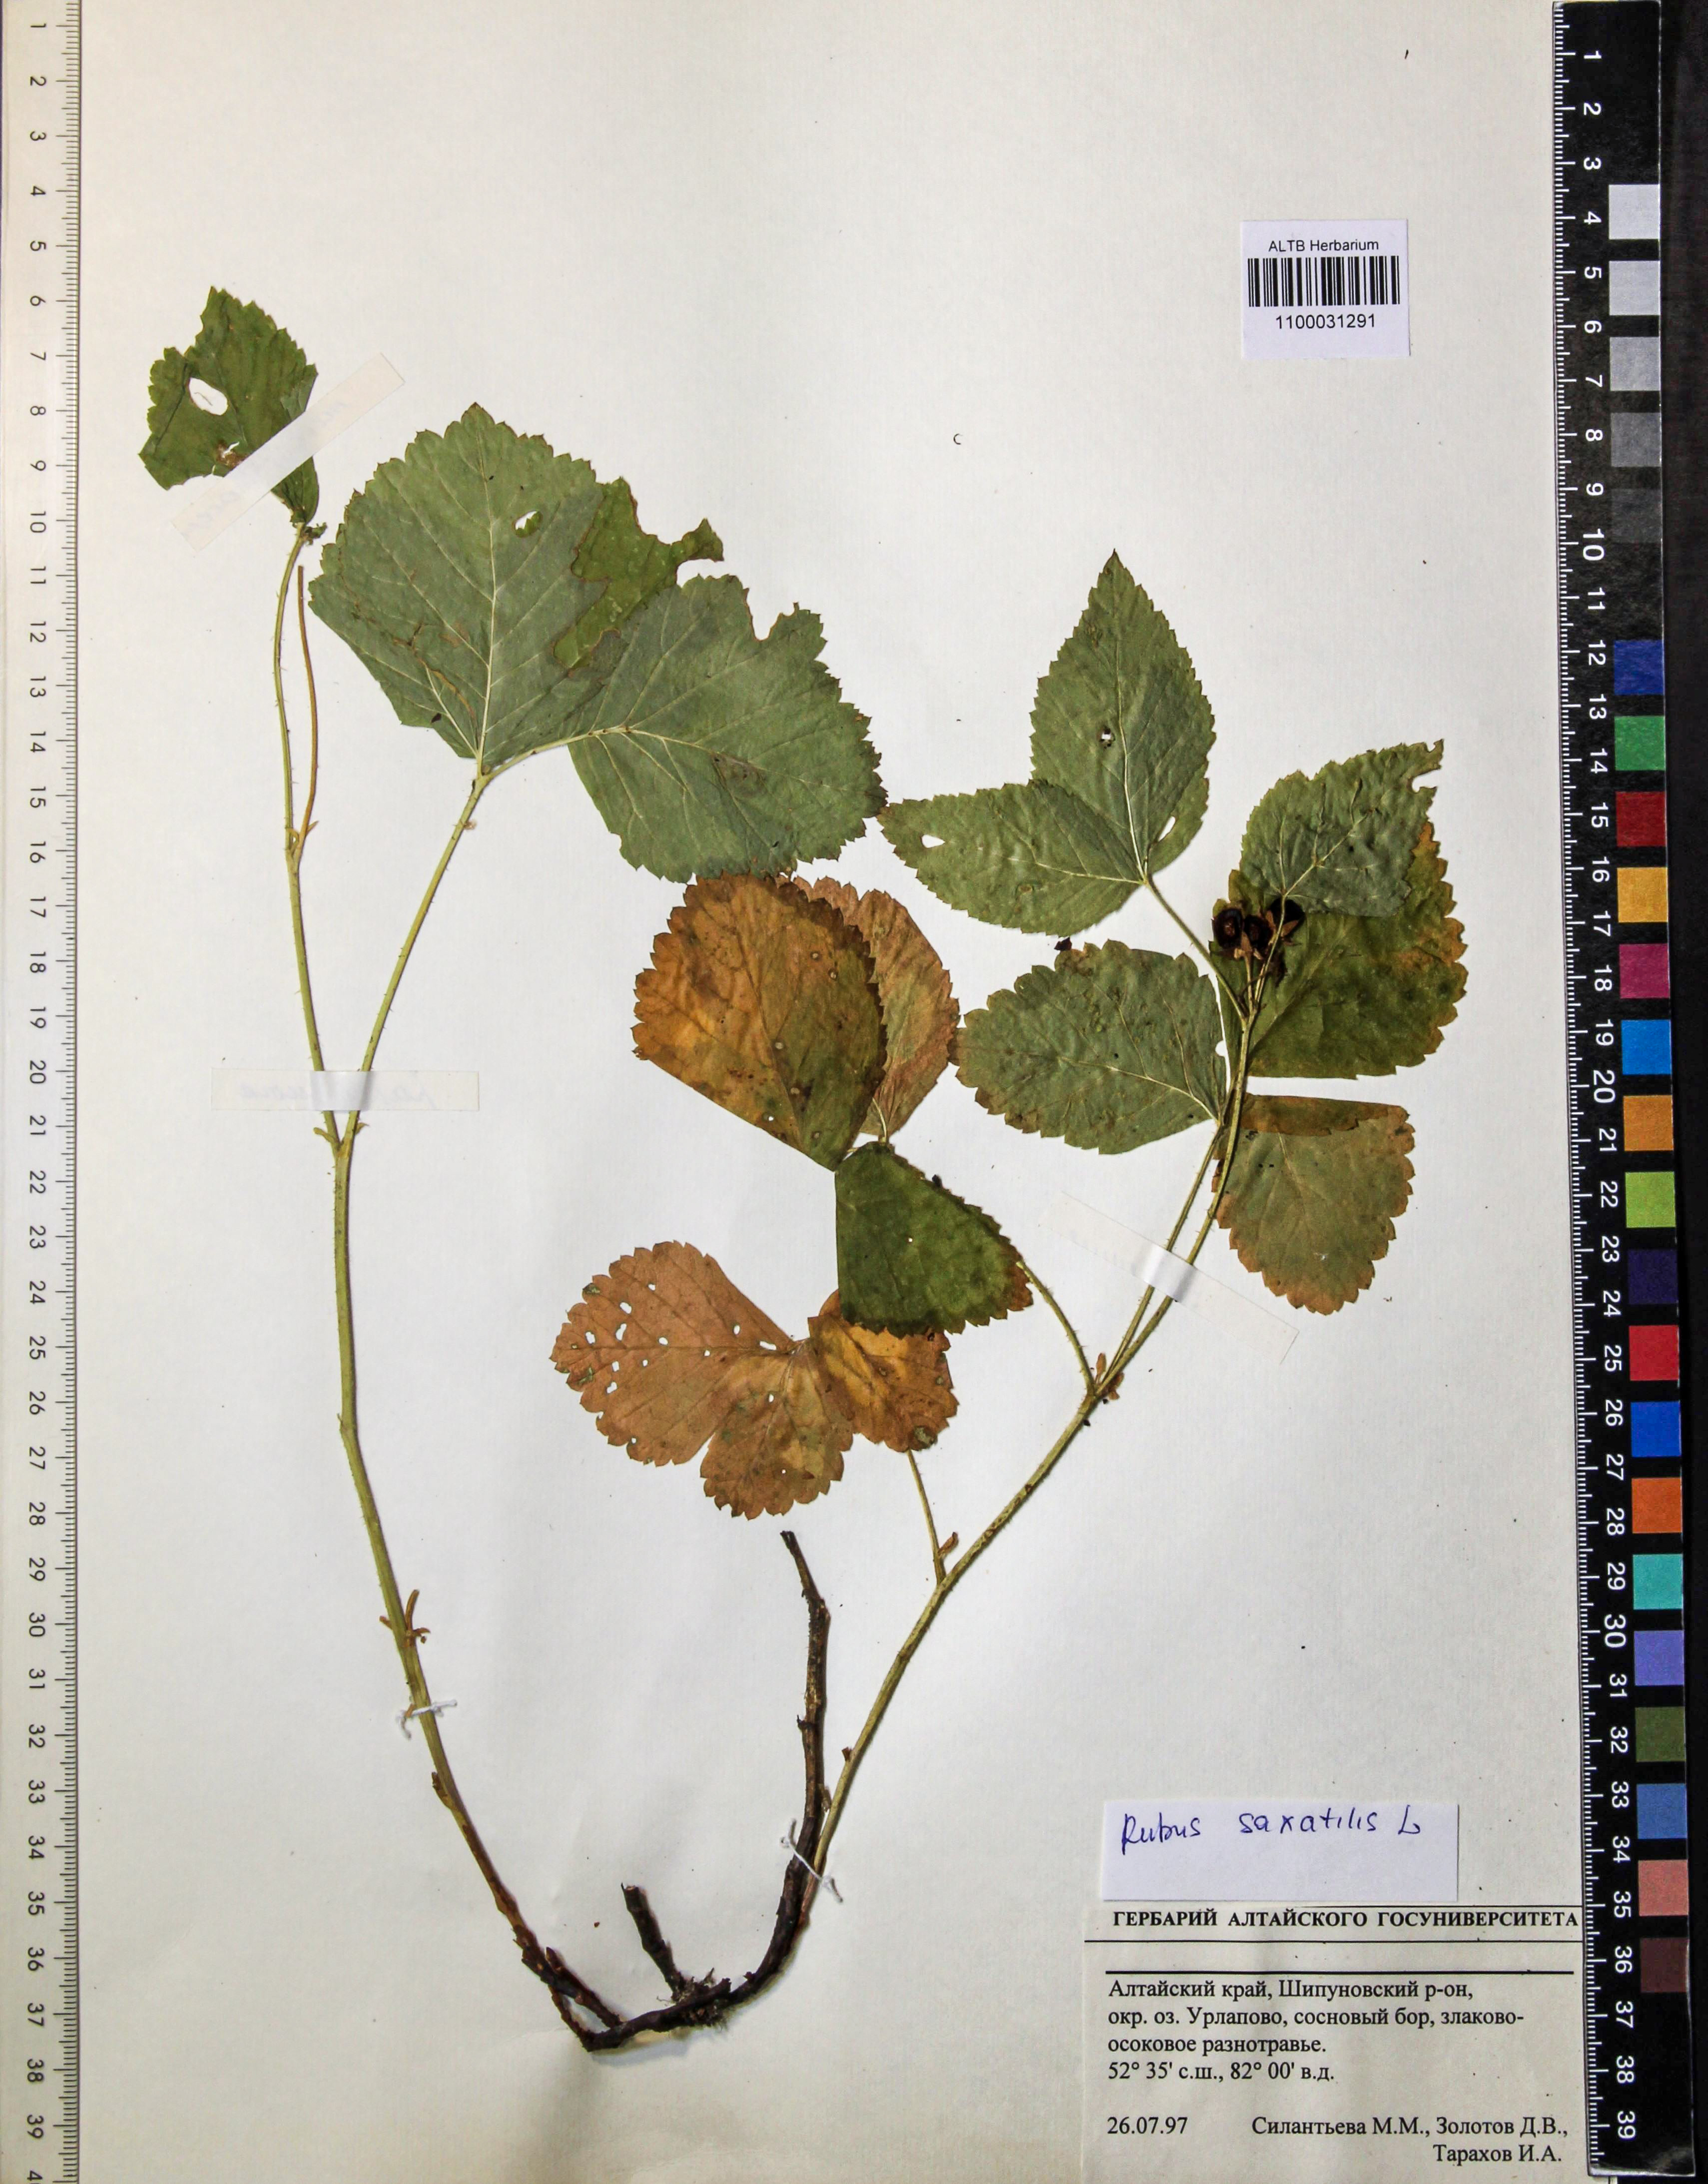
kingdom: Plantae
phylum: Tracheophyta
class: Magnoliopsida
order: Rosales
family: Rosaceae
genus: Rubus
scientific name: Rubus saxatilis
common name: Stone bramble
